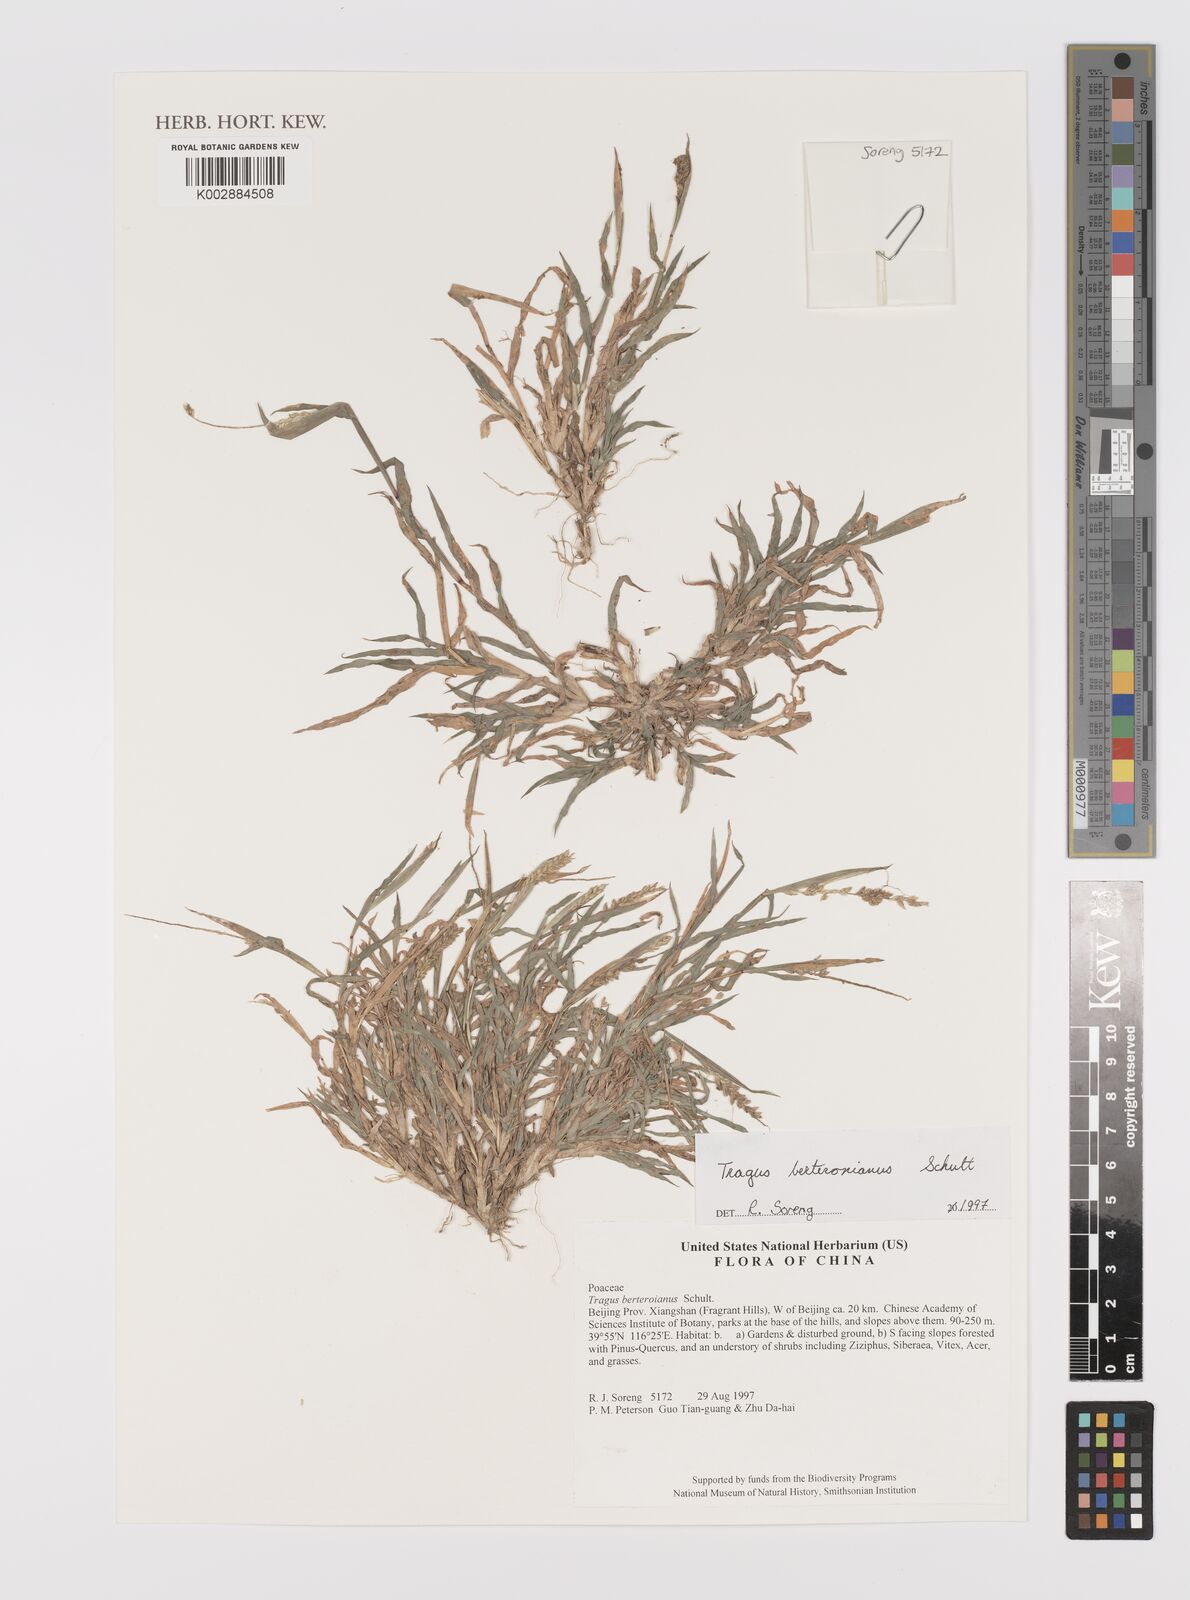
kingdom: Plantae
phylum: Tracheophyta
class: Liliopsida
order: Poales
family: Poaceae
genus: Tragus
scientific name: Tragus berteronianus
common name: African bur-grass
